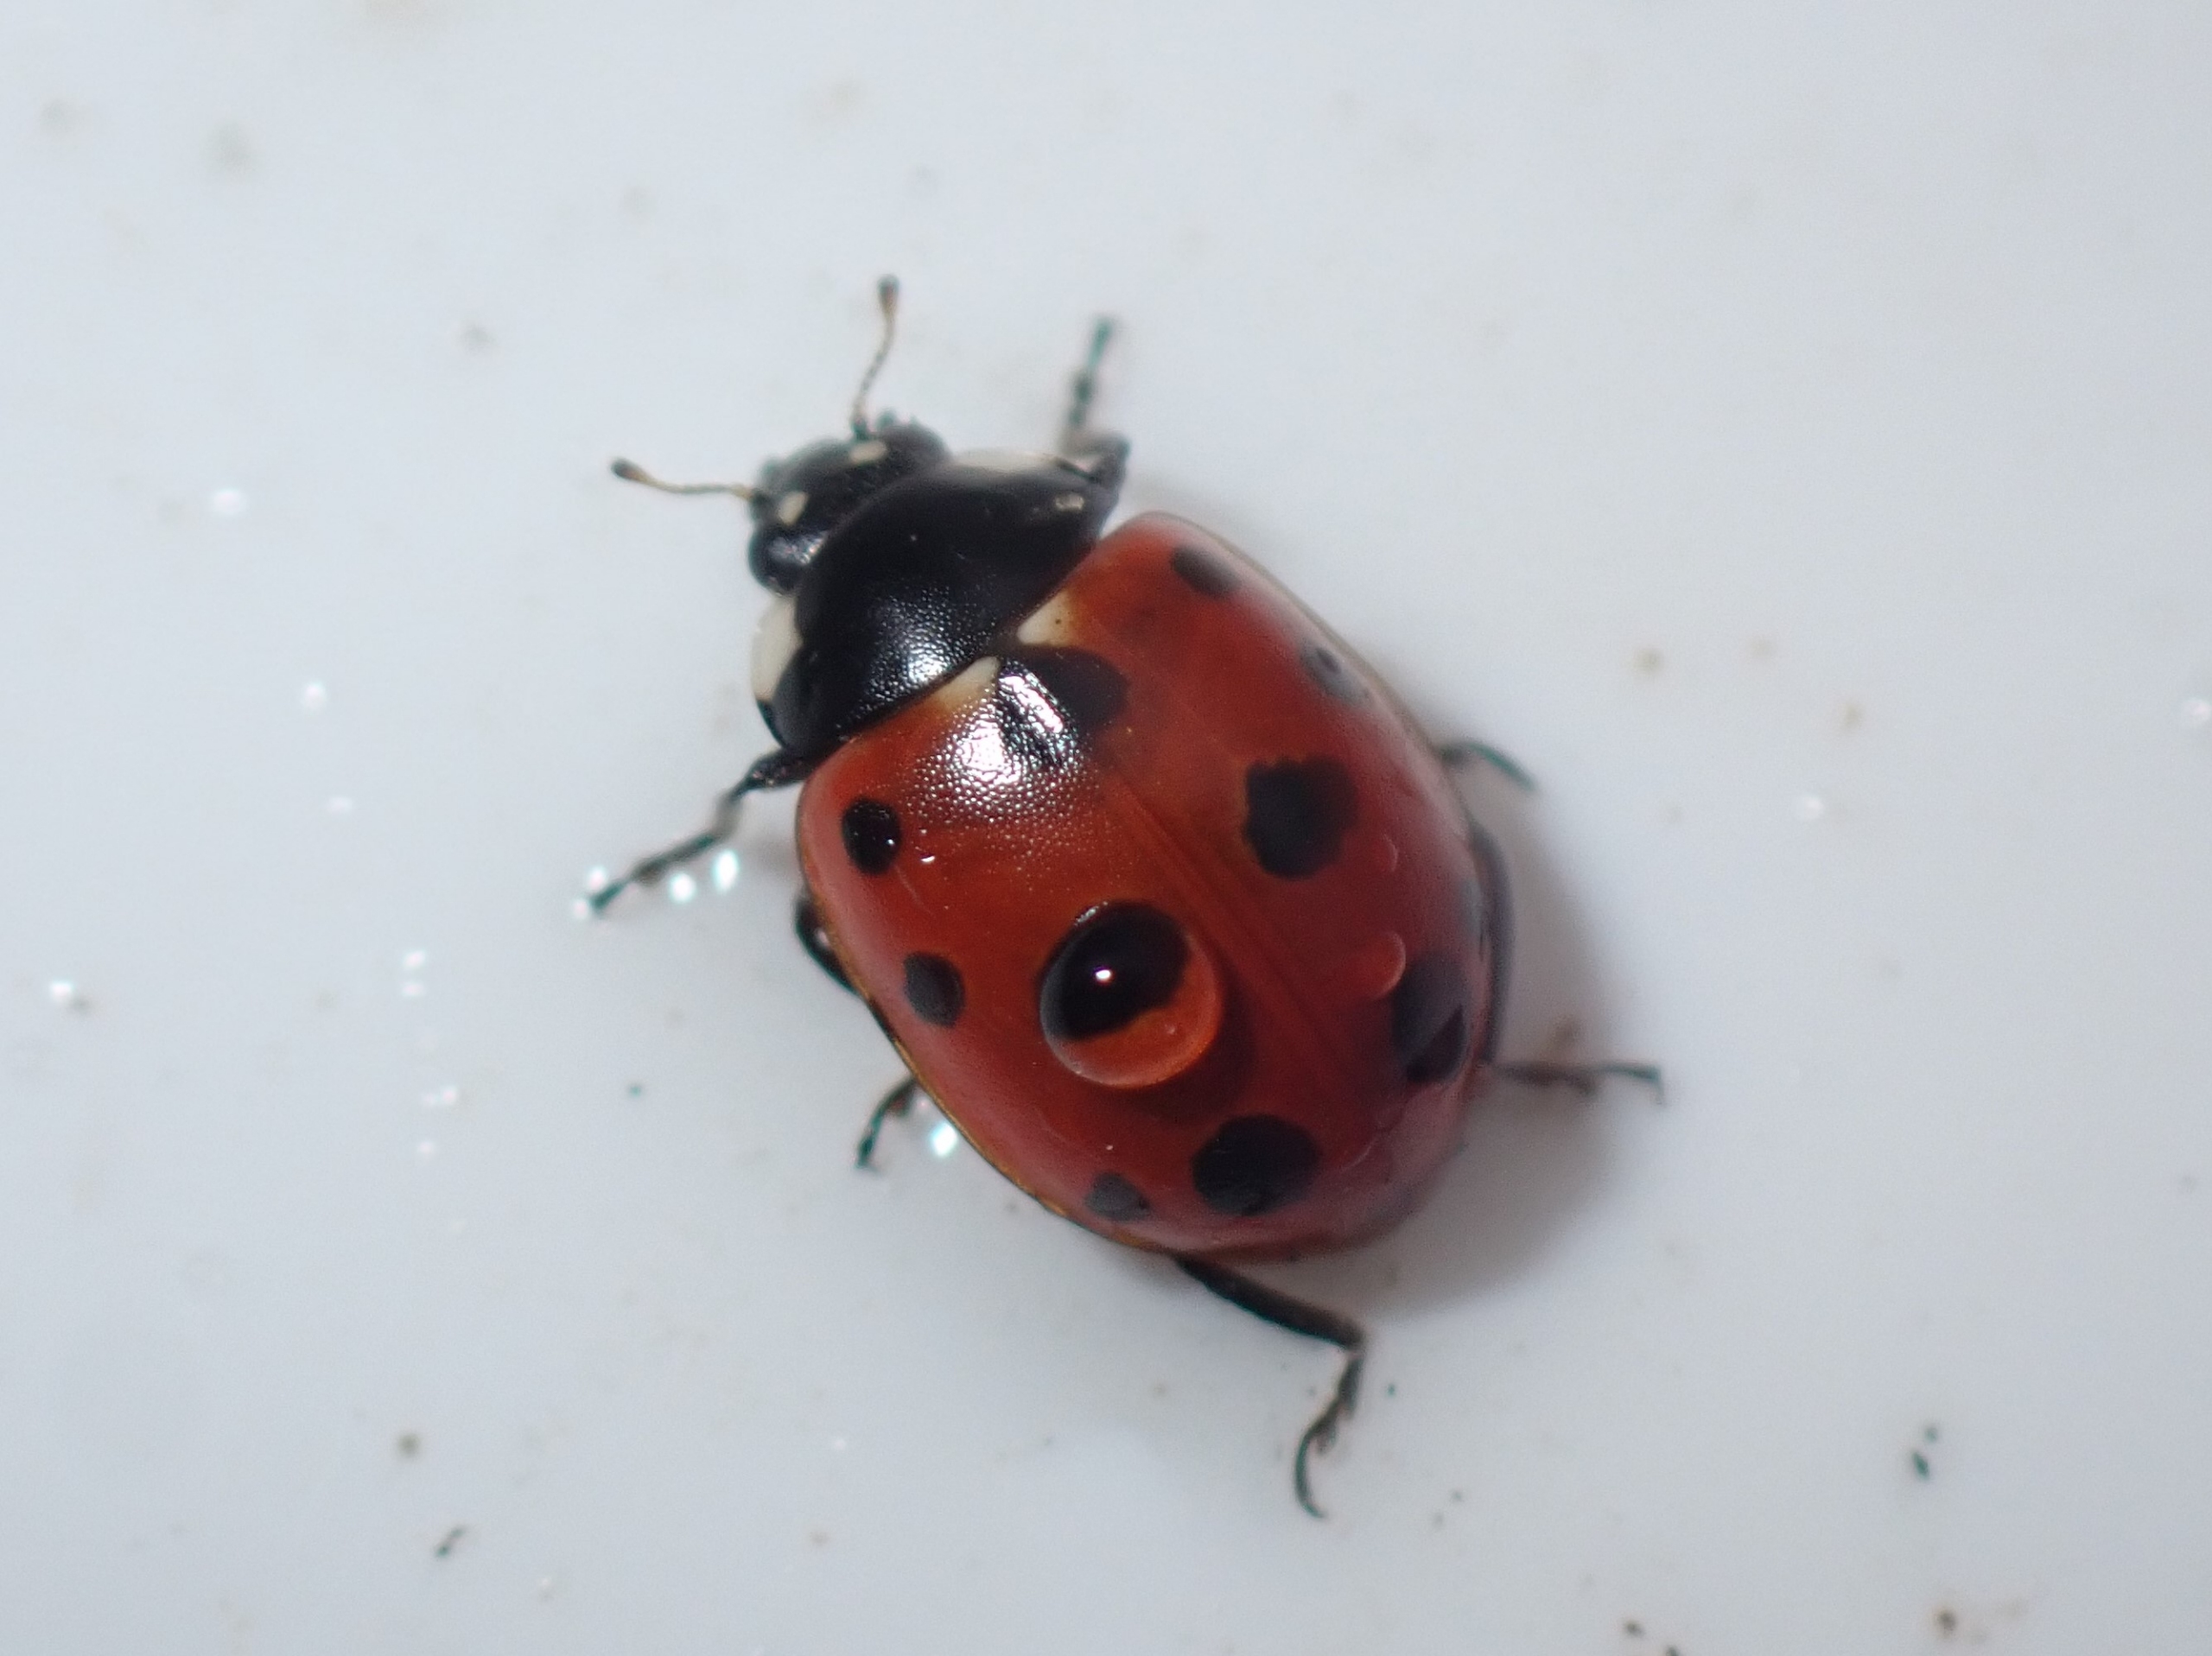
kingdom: Animalia
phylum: Arthropoda
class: Insecta
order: Coleoptera
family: Coccinellidae
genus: Coccinella
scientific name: Coccinella undecimpunctata
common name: Elleveplettet mariehøne
